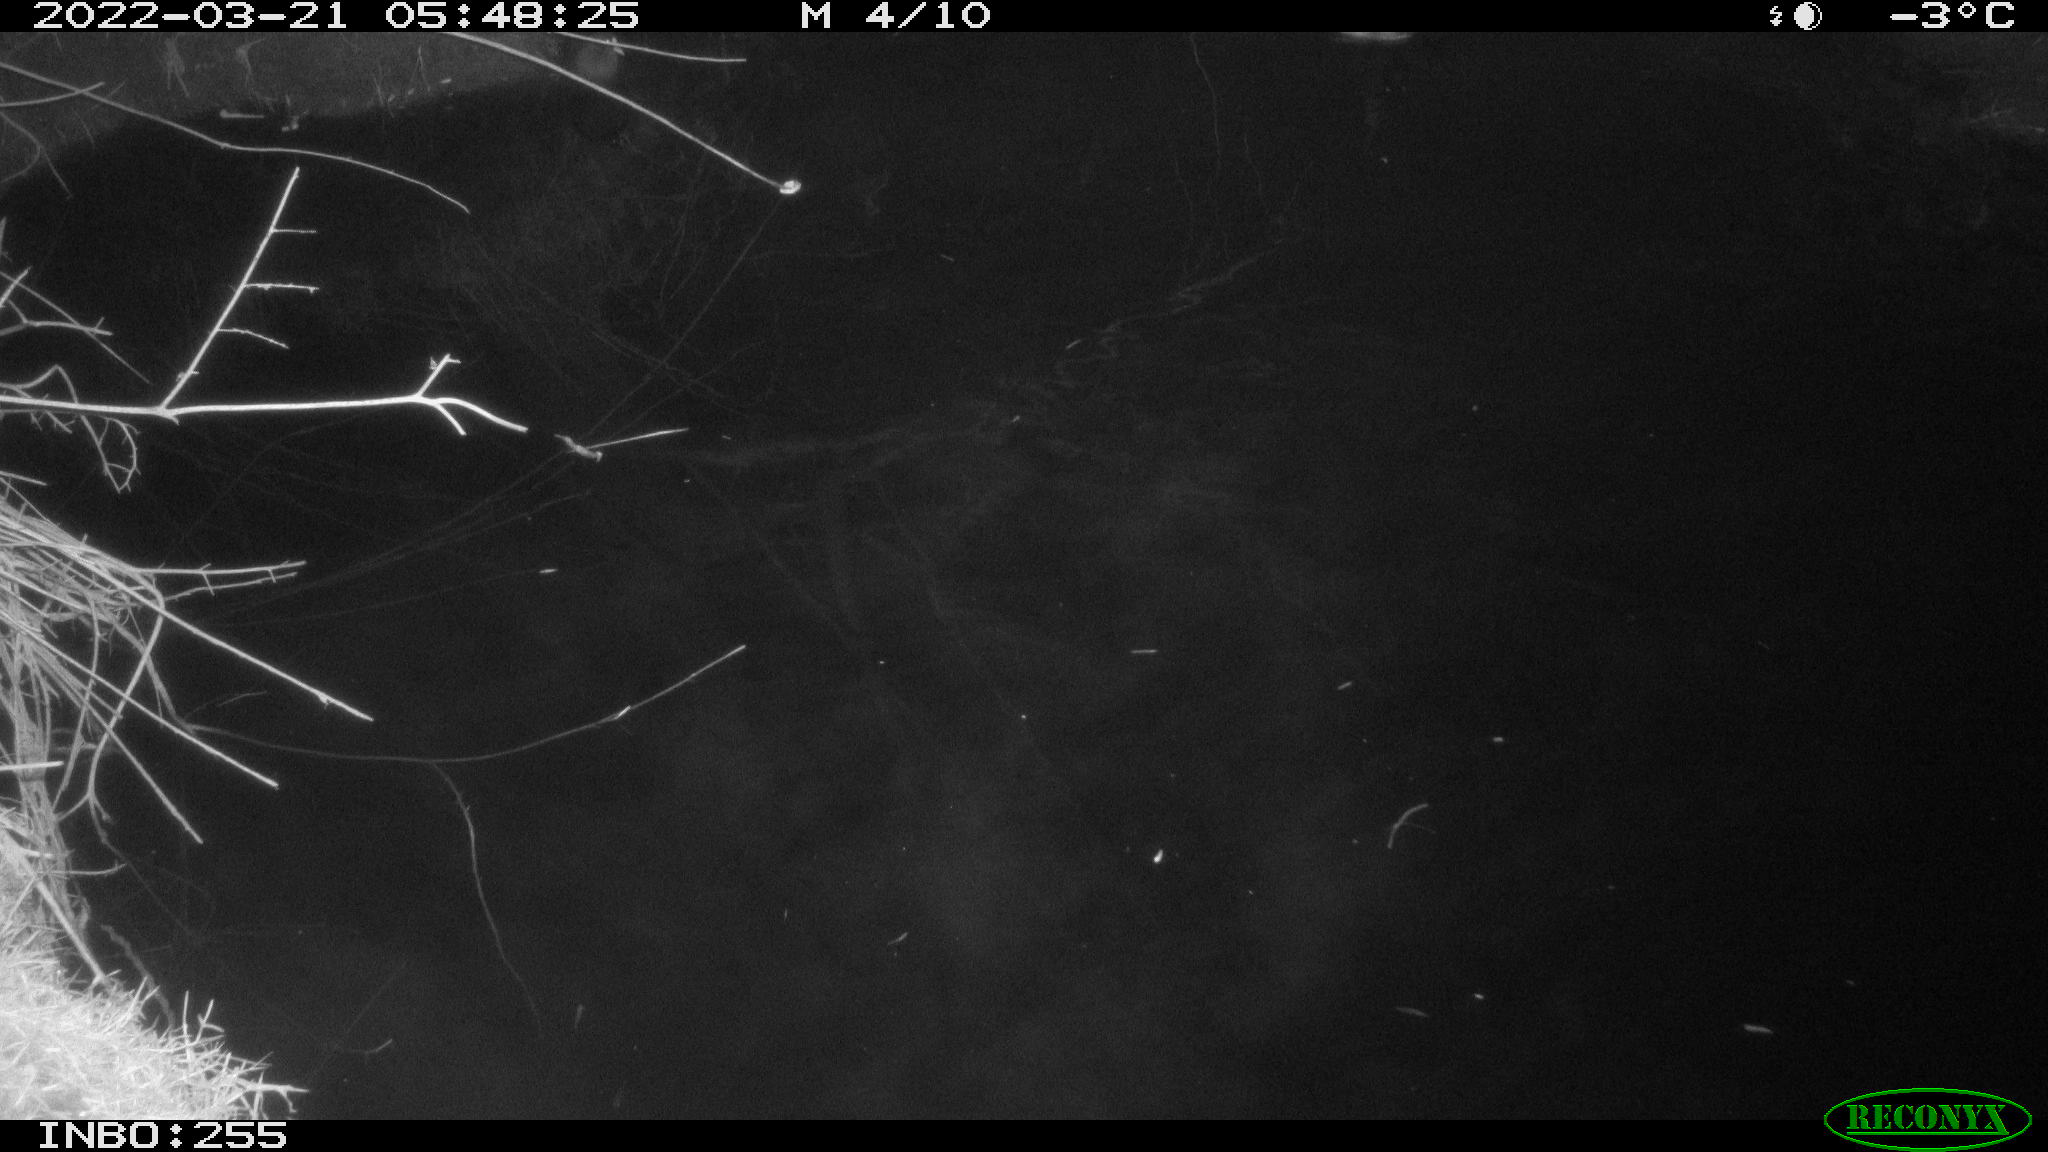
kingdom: Animalia
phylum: Chordata
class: Aves
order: Anseriformes
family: Anatidae
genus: Anas
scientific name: Anas platyrhynchos
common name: Mallard
